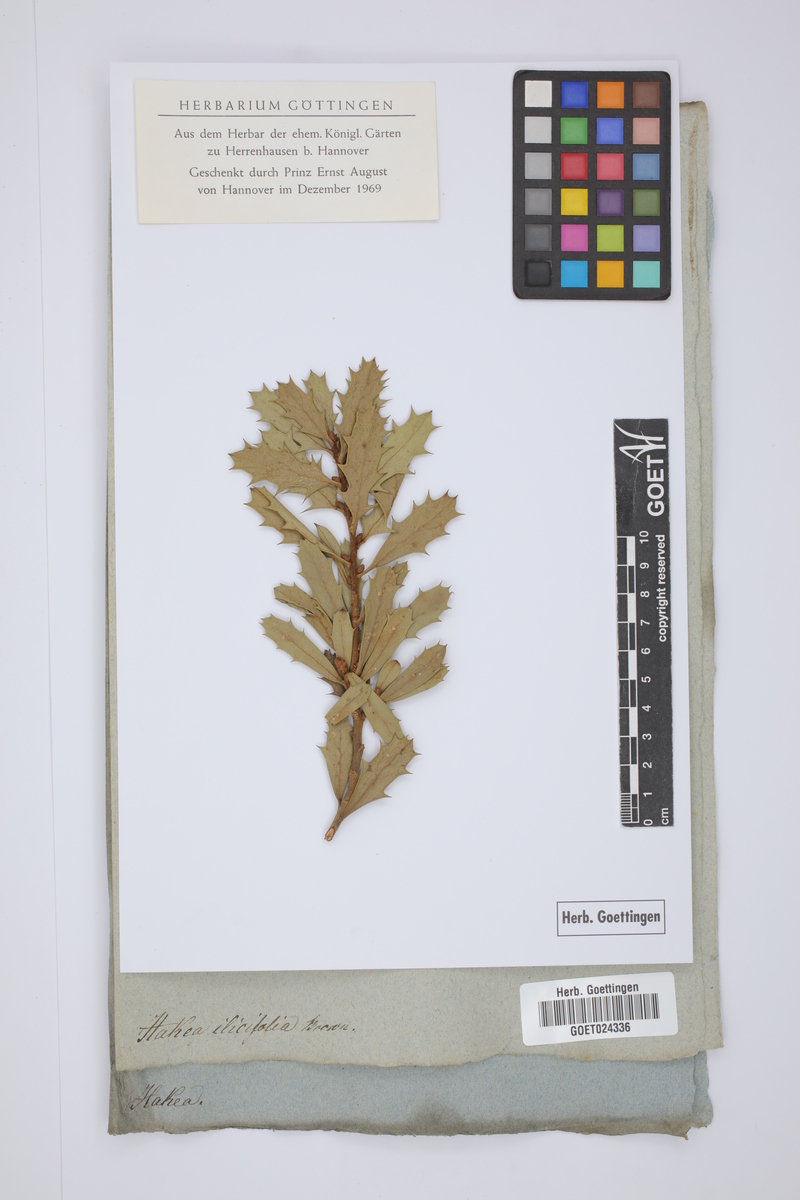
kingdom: Plantae
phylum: Tracheophyta
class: Magnoliopsida
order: Proteales
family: Proteaceae
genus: Hakea
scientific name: Hakea ilicifolia
